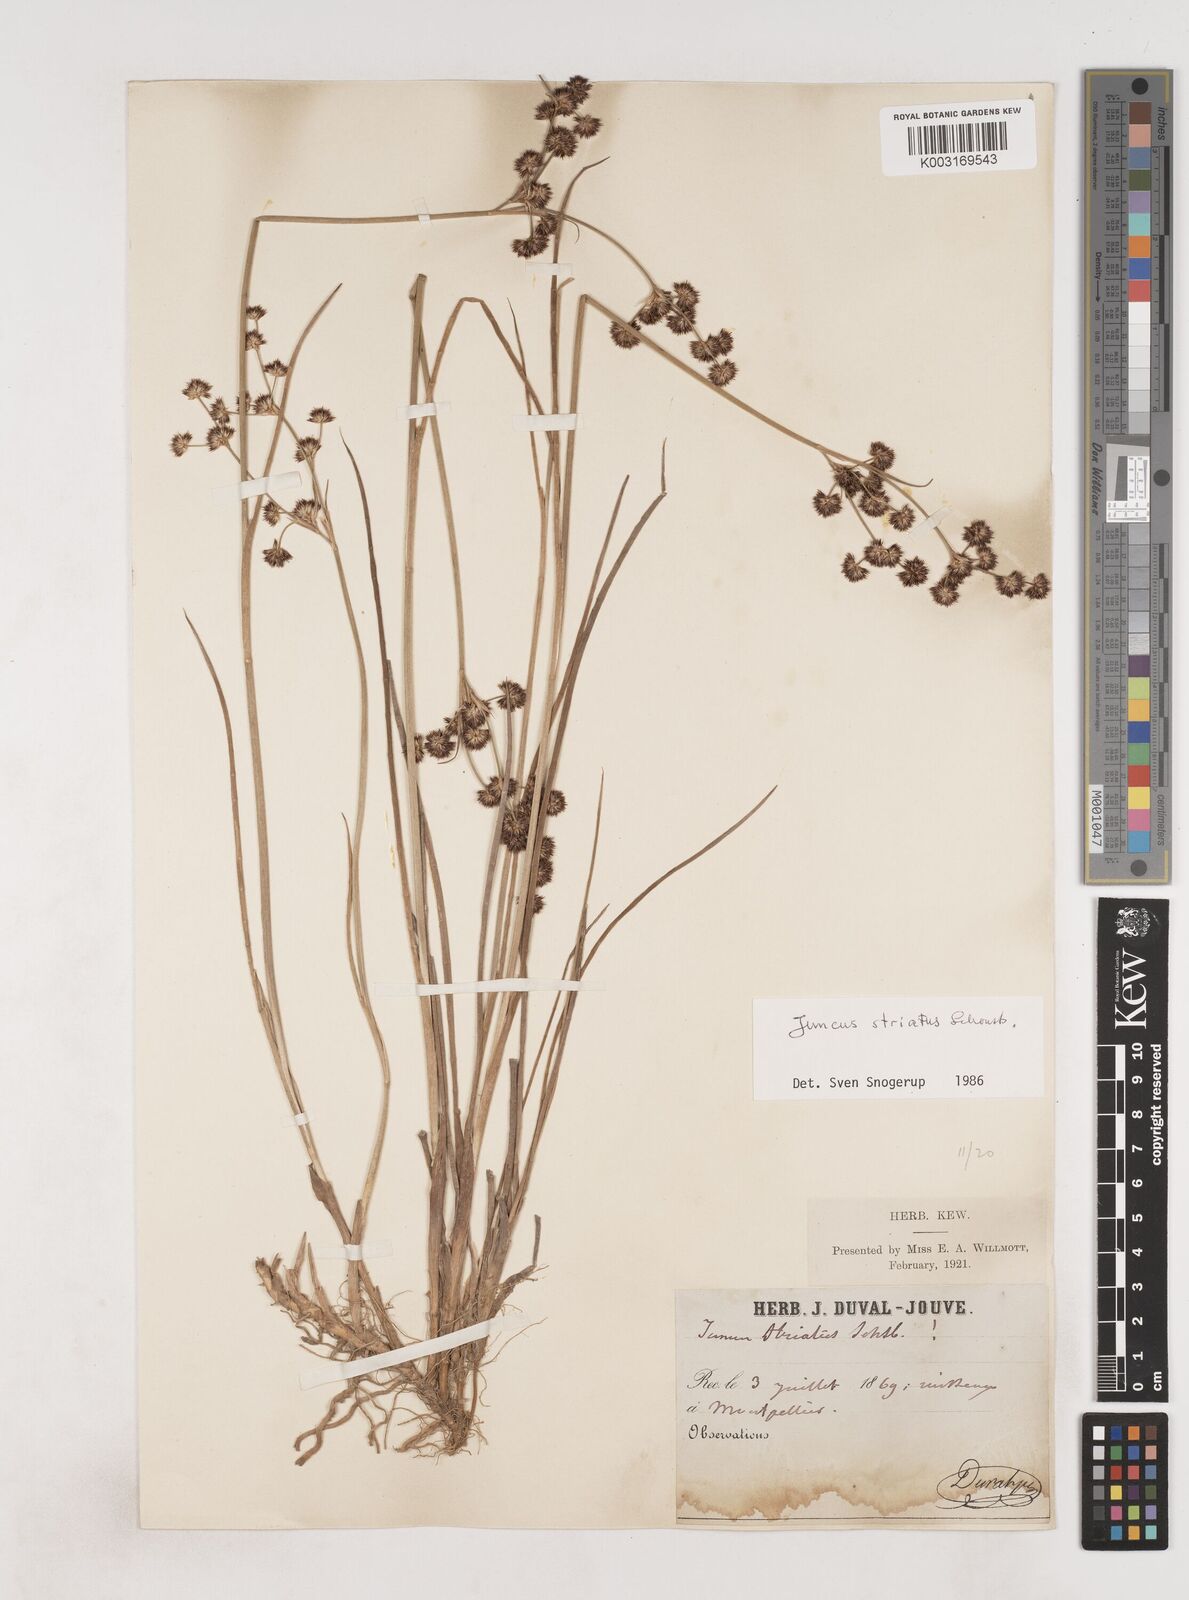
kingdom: Plantae
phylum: Tracheophyta
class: Liliopsida
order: Poales
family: Juncaceae
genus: Juncus
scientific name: Juncus striatus
